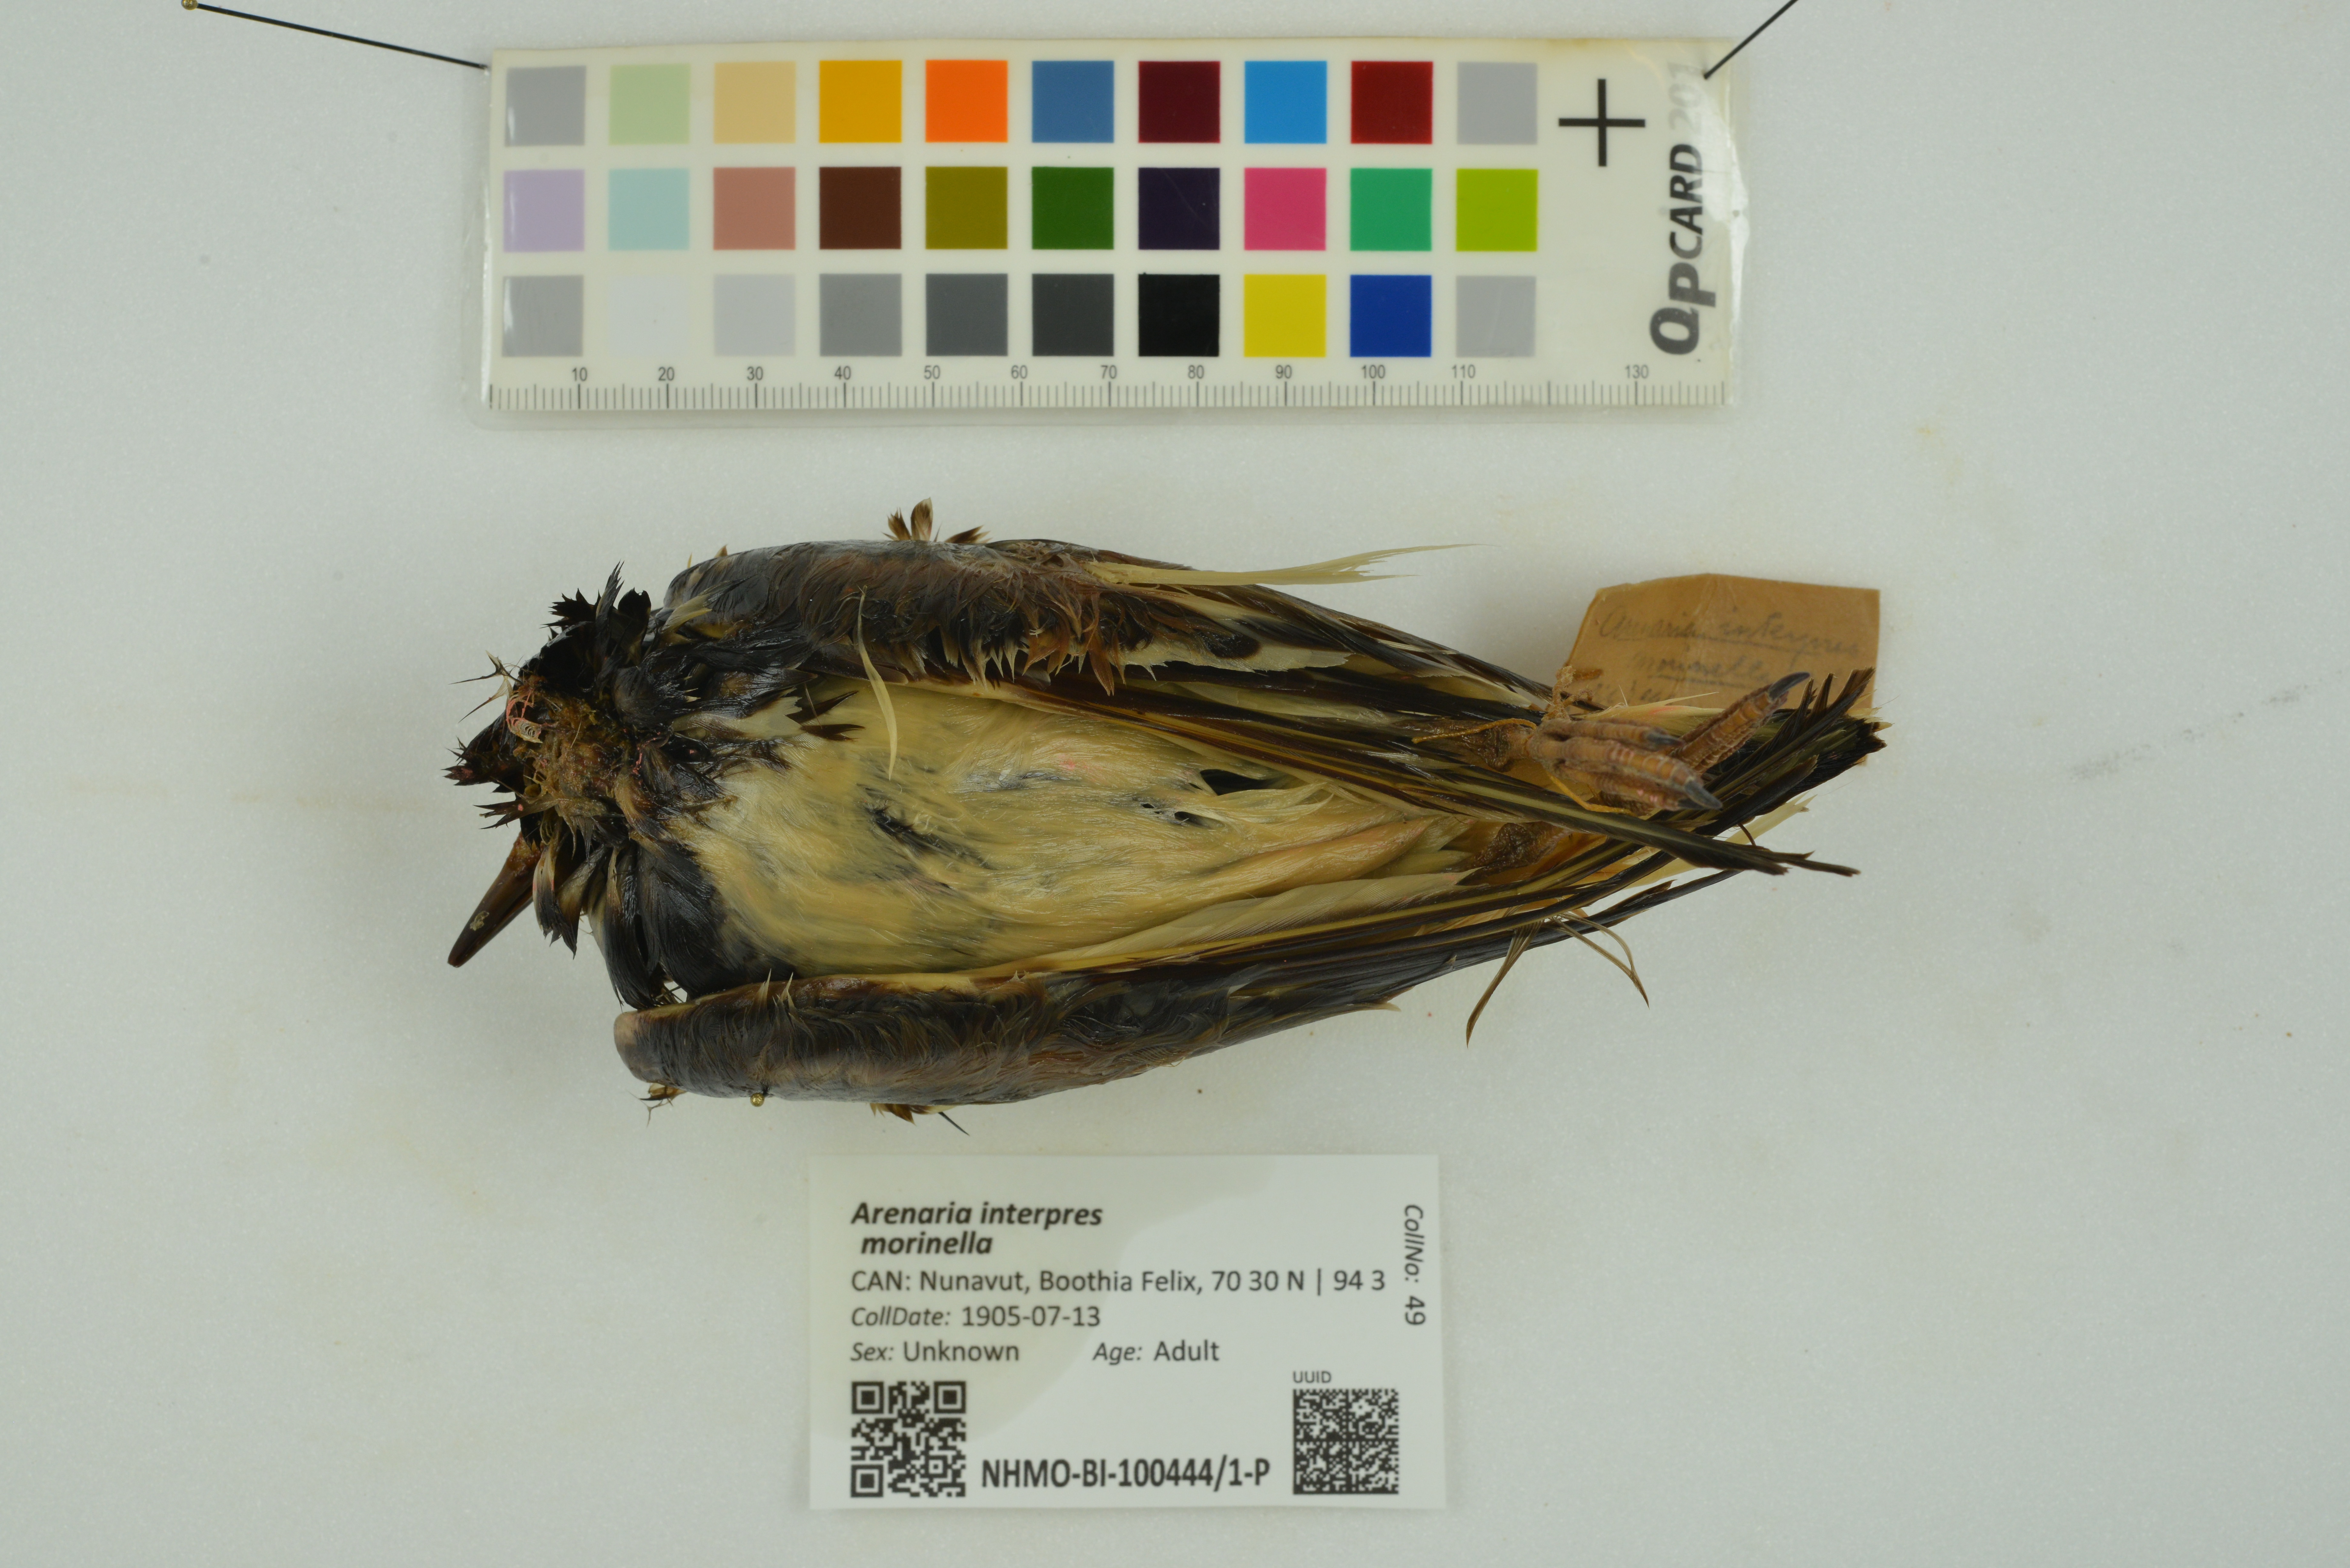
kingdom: Animalia
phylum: Chordata
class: Aves
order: Charadriiformes
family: Scolopacidae
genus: Arenaria
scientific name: Arenaria interpres
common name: Ruddy turnstone
